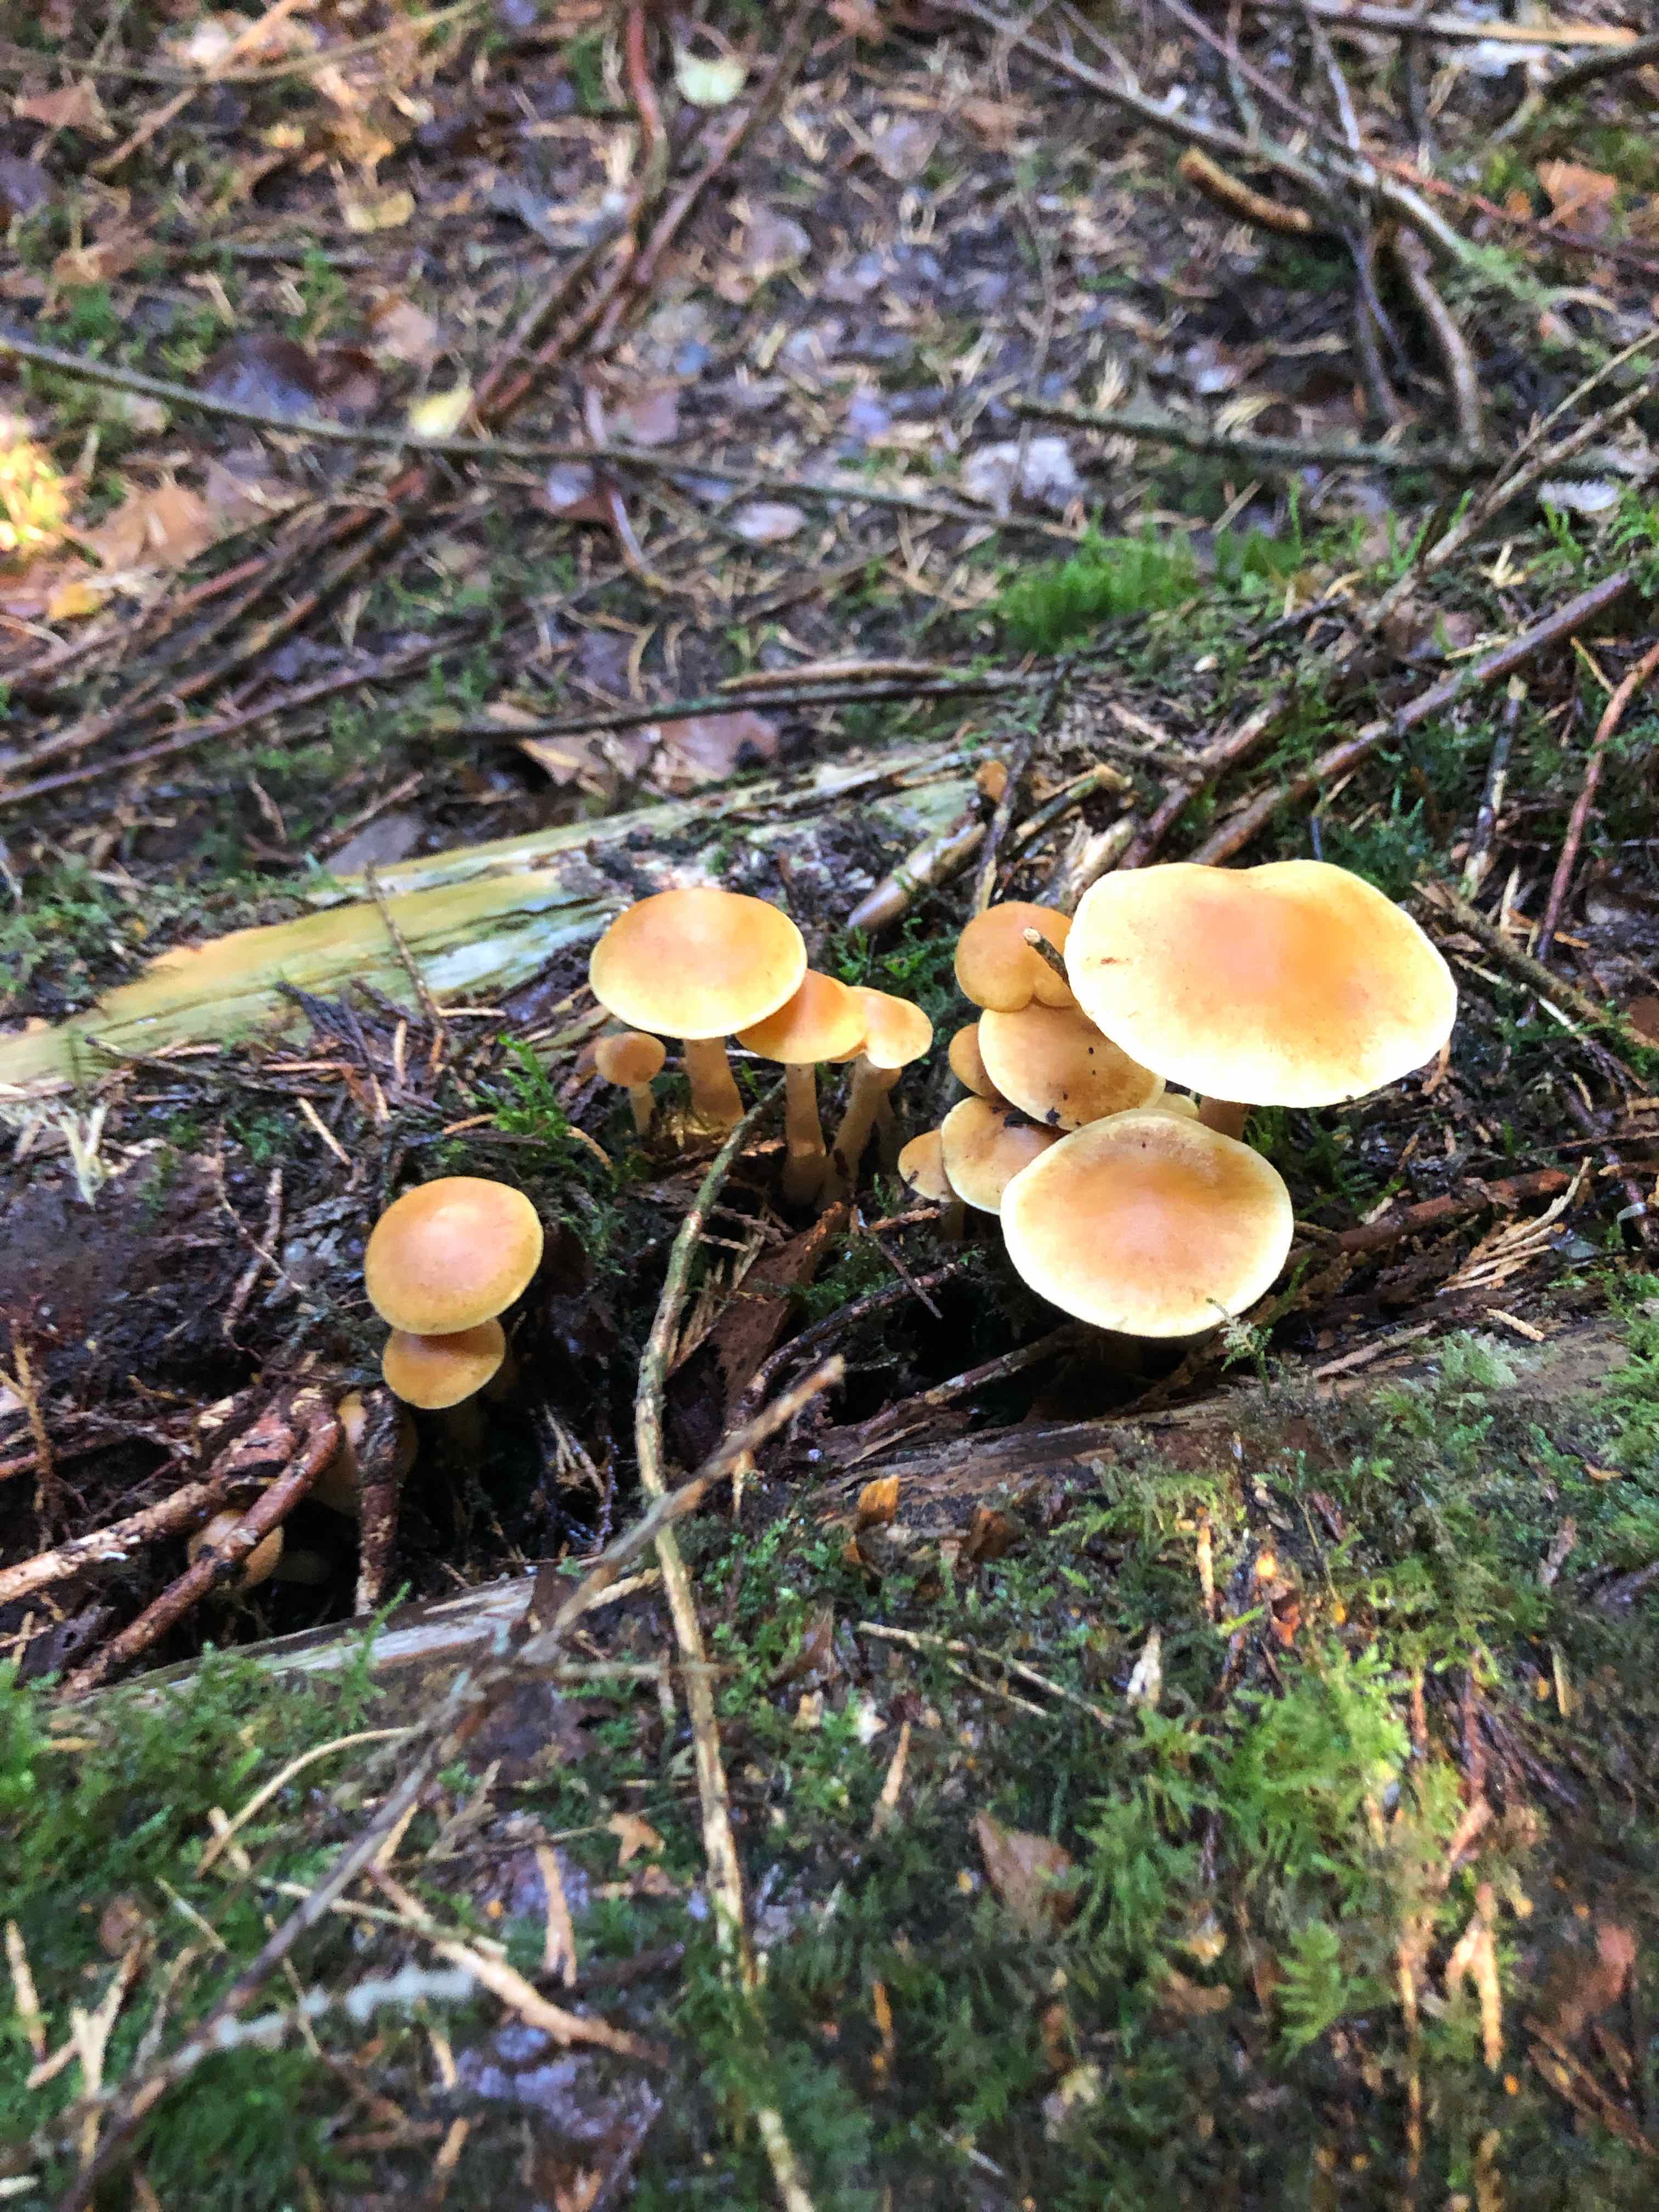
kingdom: Fungi
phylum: Basidiomycota
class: Agaricomycetes
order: Agaricales
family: Hymenogastraceae
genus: Gymnopilus
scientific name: Gymnopilus penetrans
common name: plettet flammehat
